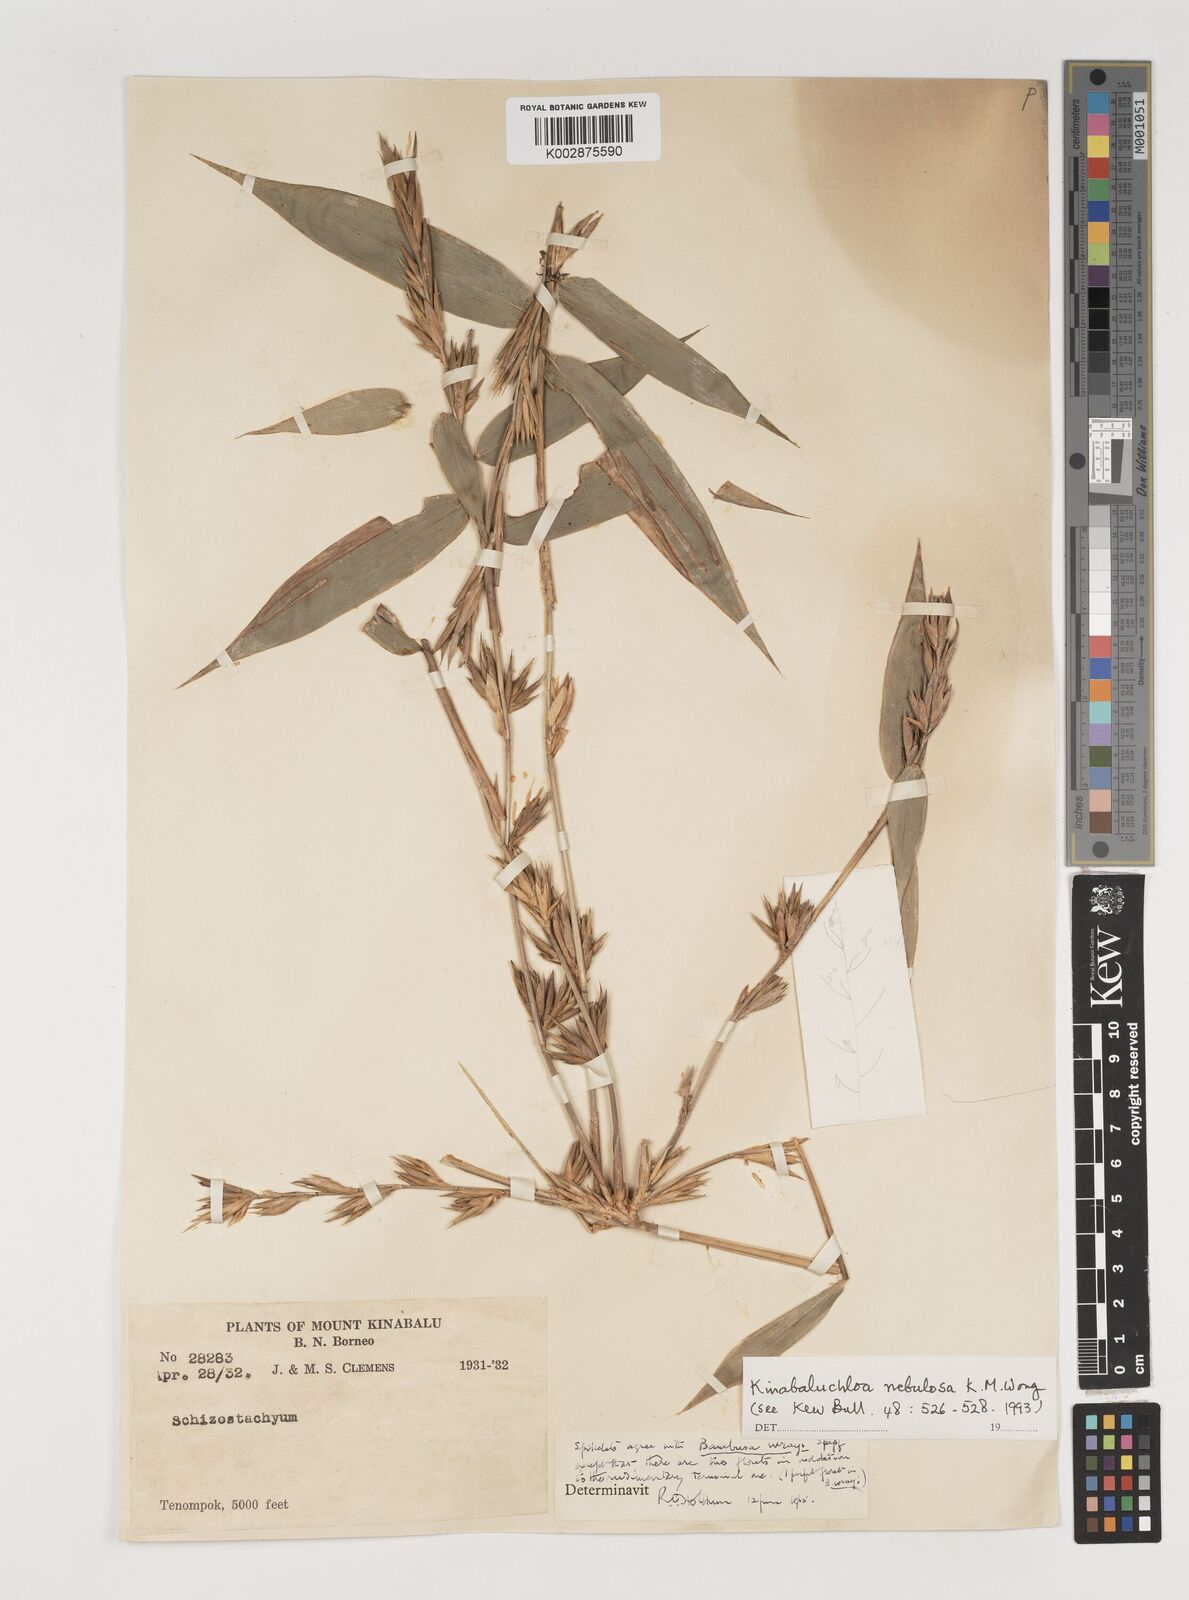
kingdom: Plantae
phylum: Tracheophyta
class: Liliopsida
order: Poales
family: Poaceae
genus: Kinabaluchloa
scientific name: Kinabaluchloa wrayi
